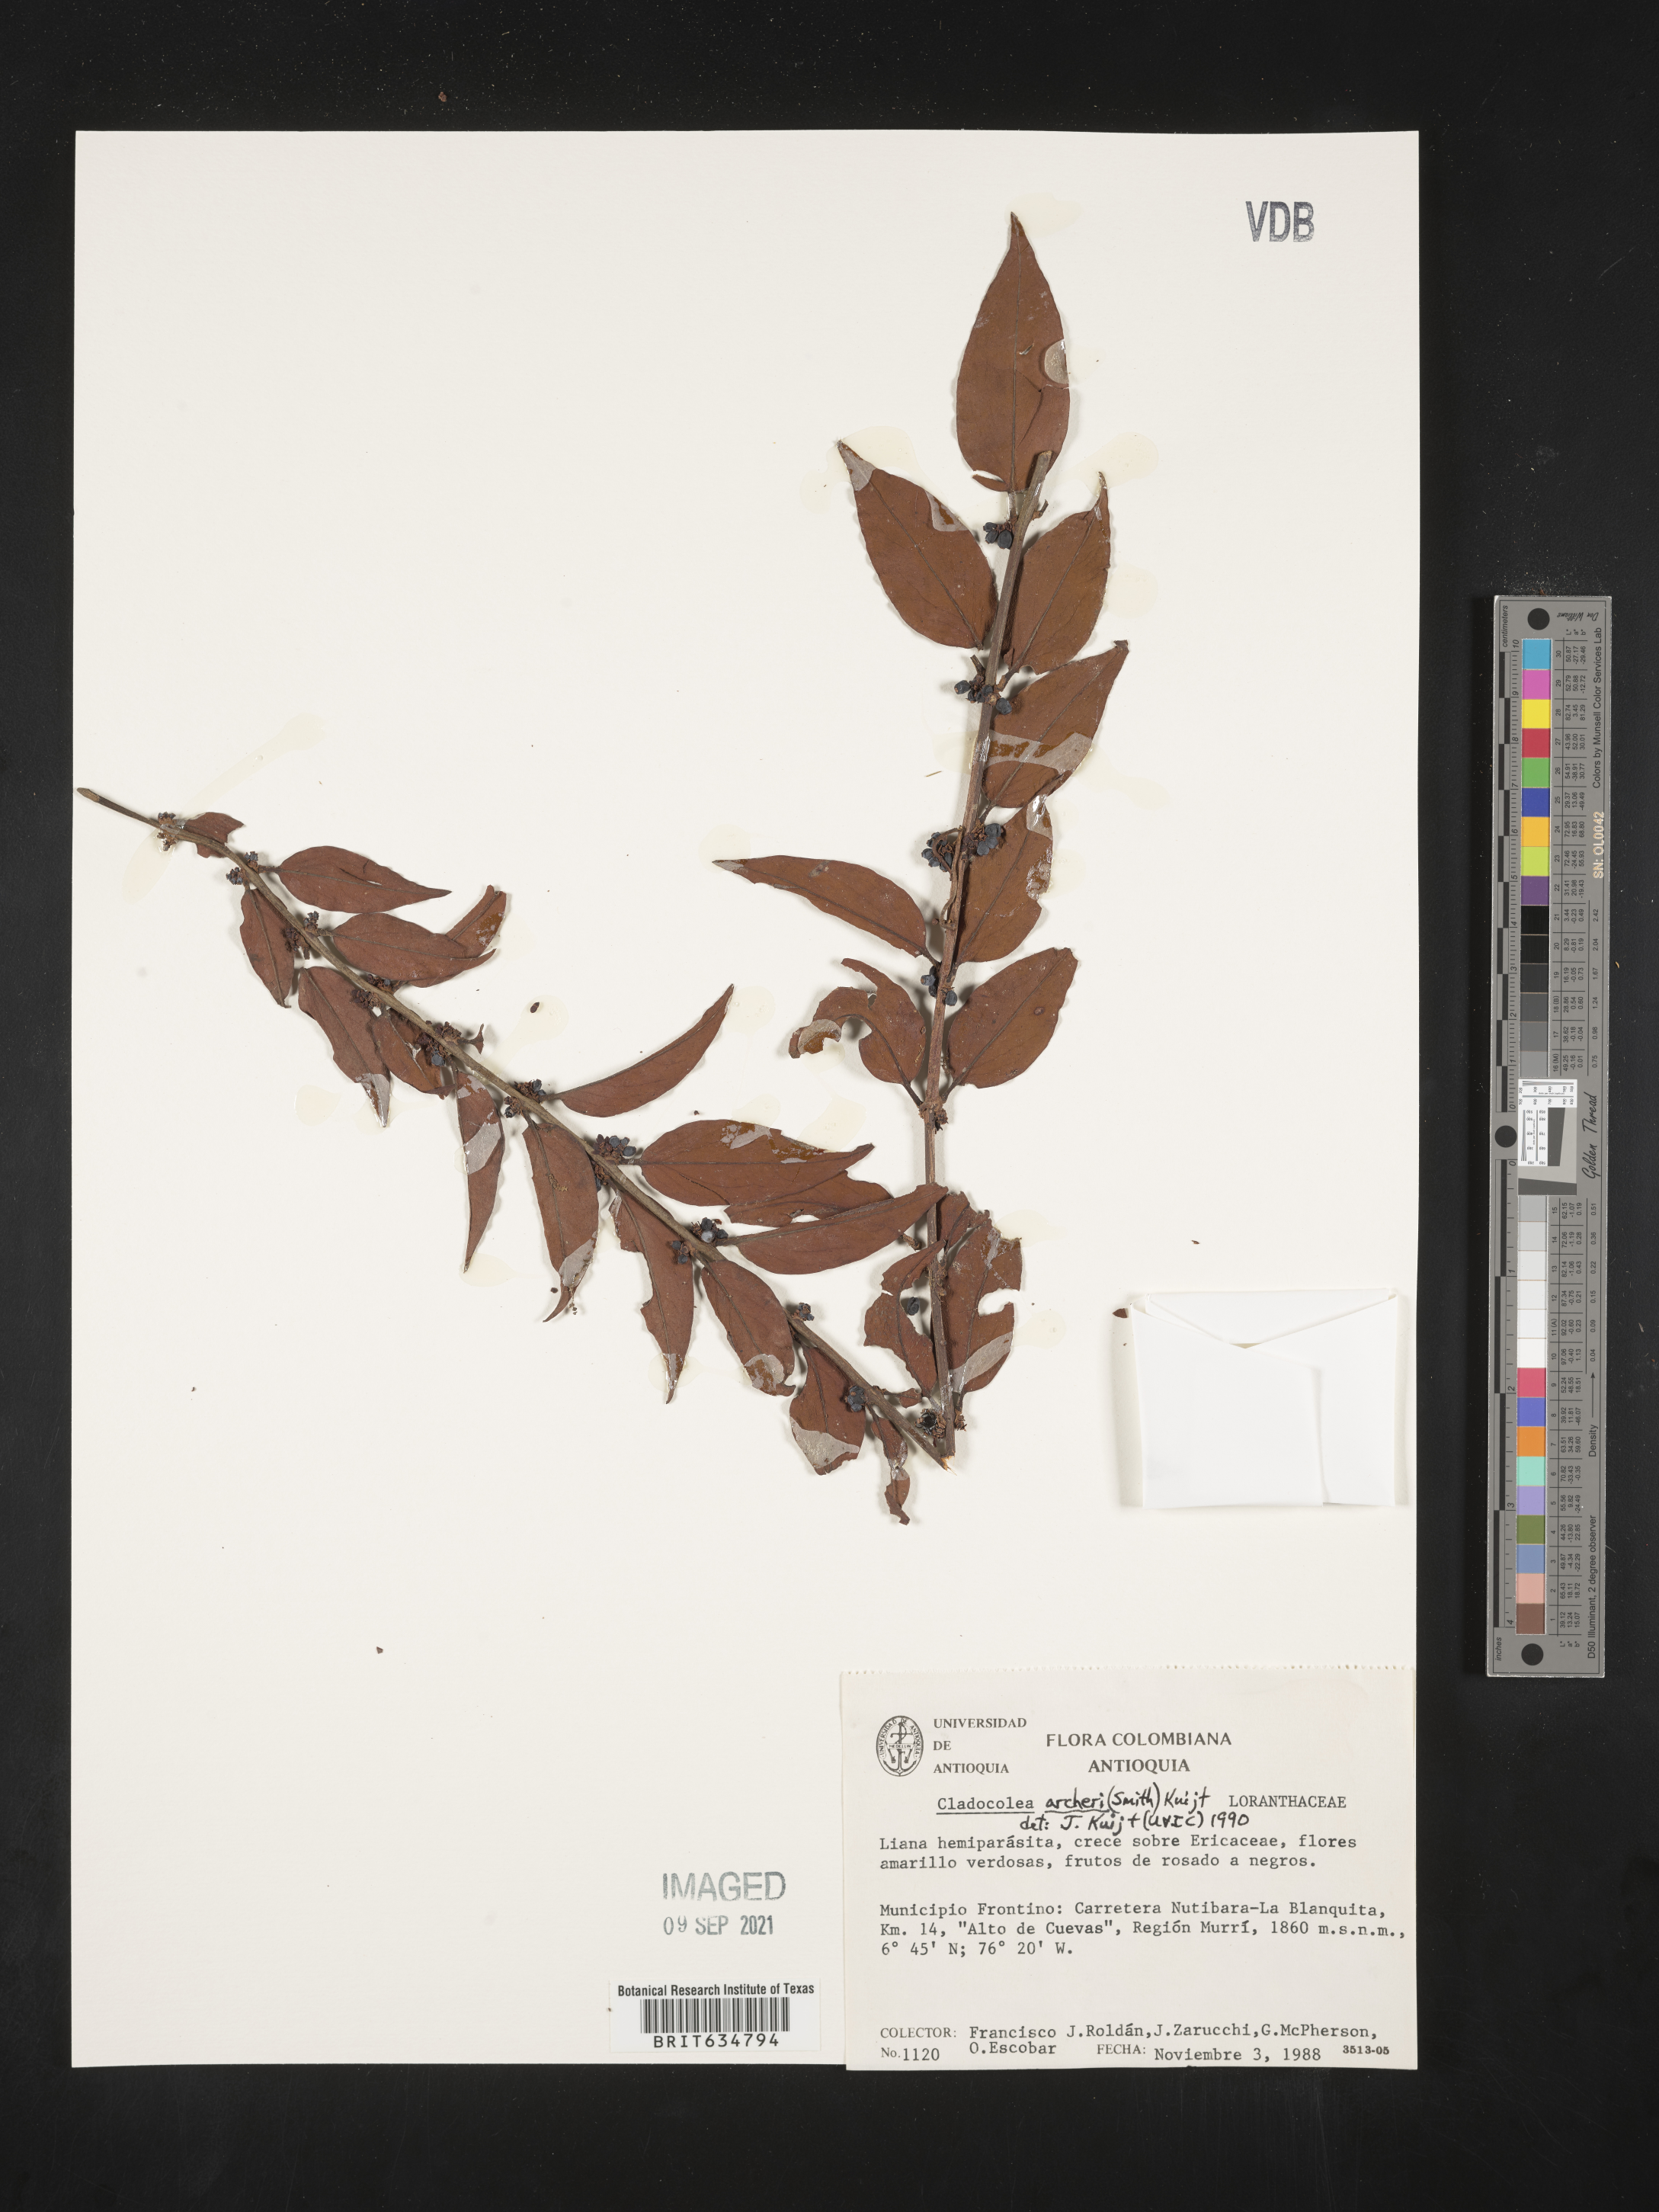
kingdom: Plantae
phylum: Tracheophyta
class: Magnoliopsida
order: Santalales
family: Loranthaceae
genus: Cladocolea
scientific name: Cladocolea
